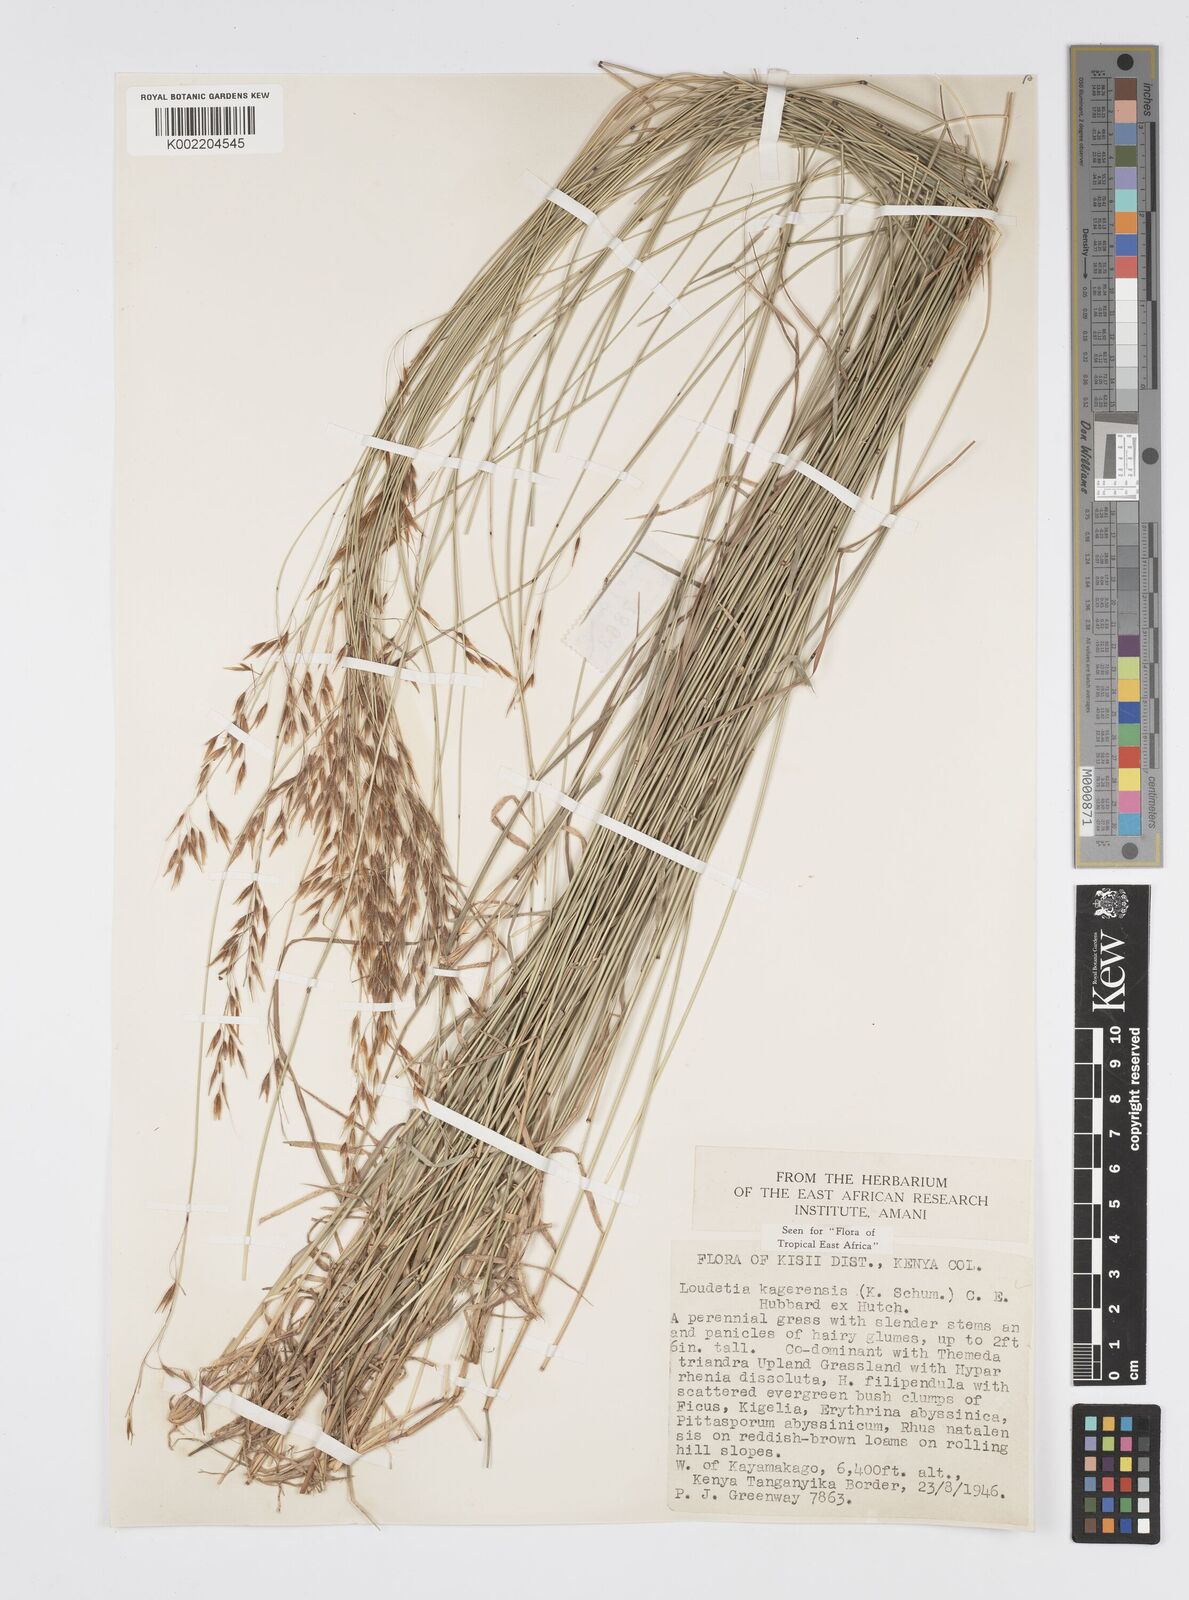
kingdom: Plantae
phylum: Tracheophyta
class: Liliopsida
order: Poales
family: Poaceae
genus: Loudetia
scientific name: Loudetia kagerensis
